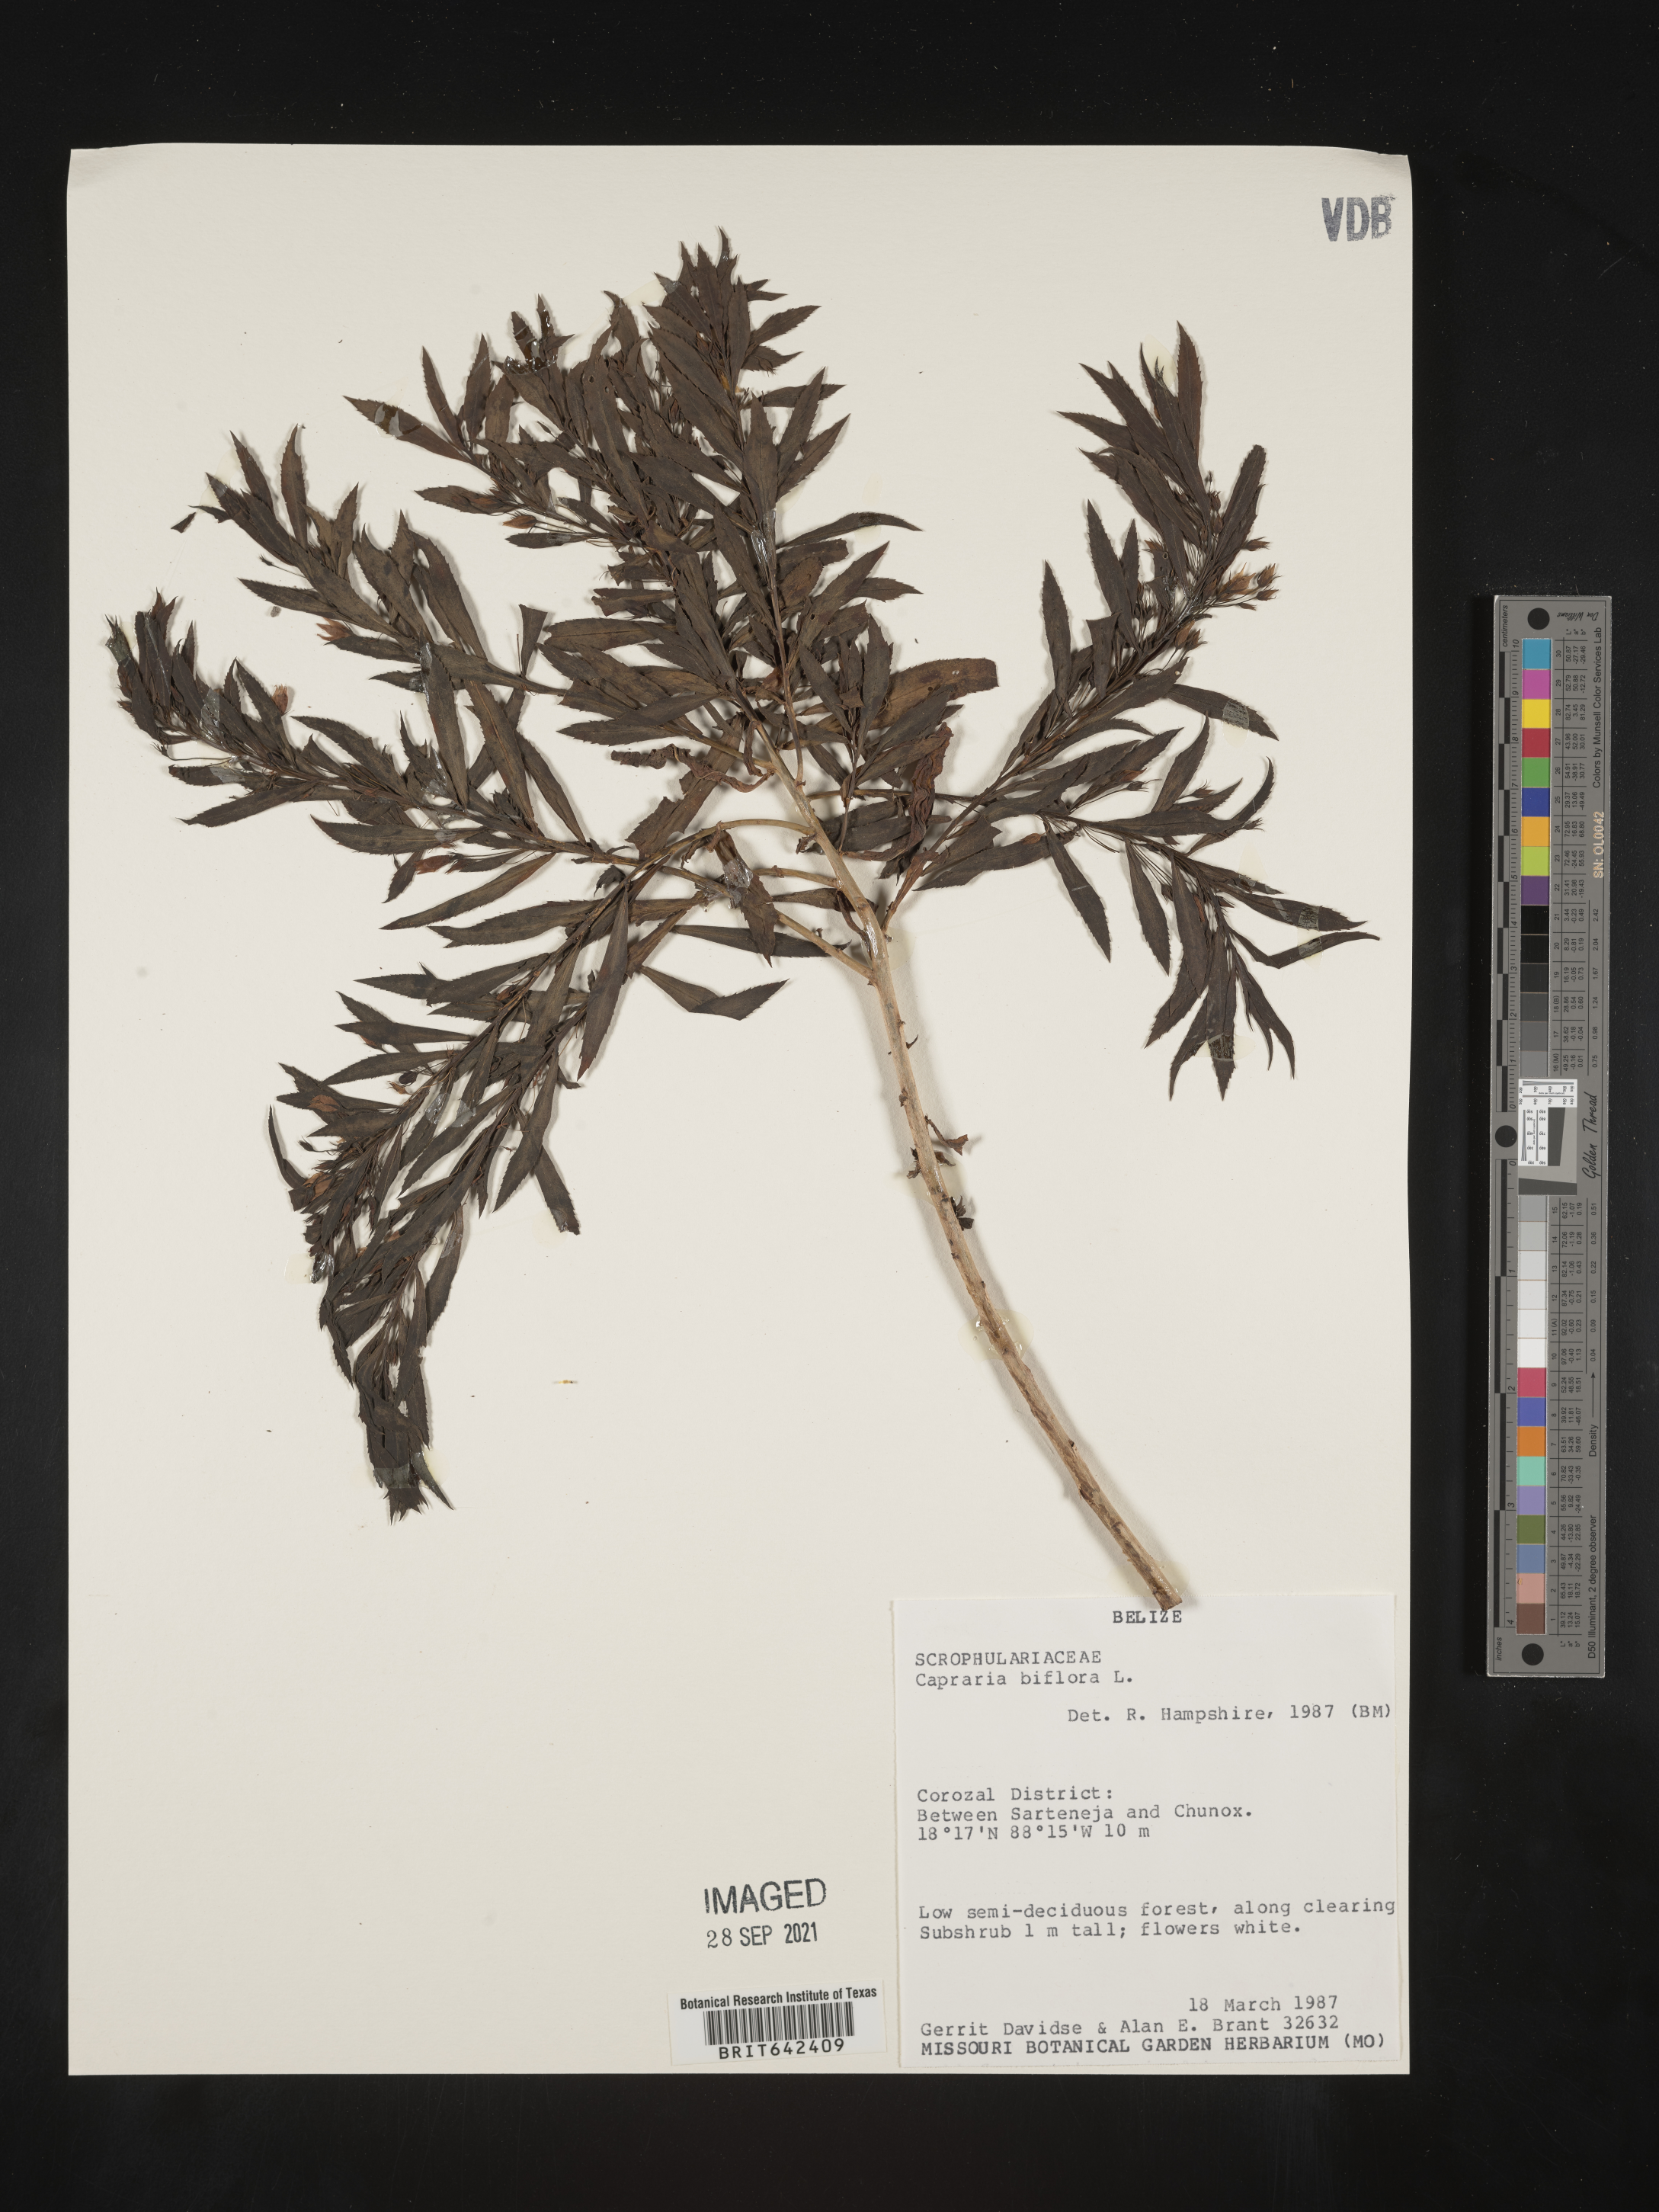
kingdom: Plantae
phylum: Tracheophyta
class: Magnoliopsida
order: Lamiales
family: Scrophulariaceae
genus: Capraria
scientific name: Capraria
